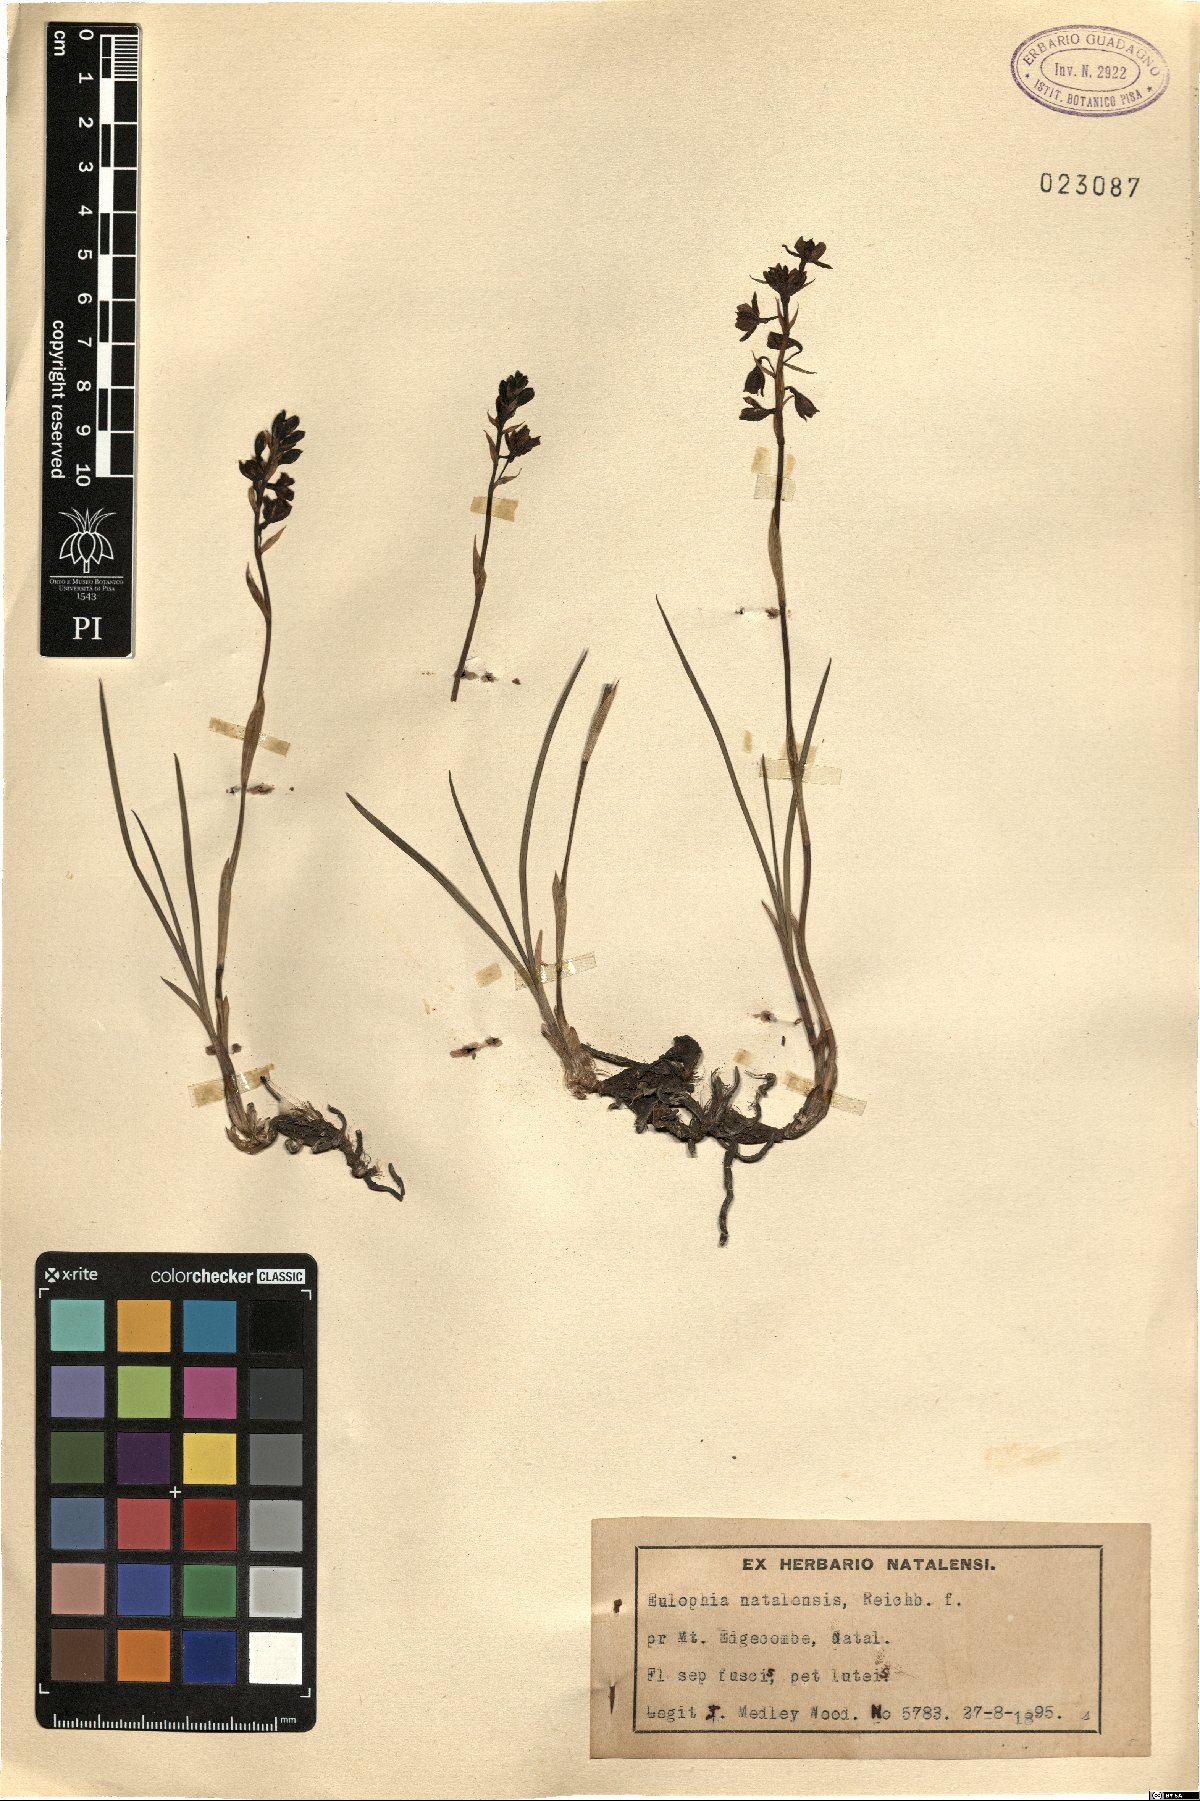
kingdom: Plantae
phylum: Tracheophyta
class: Liliopsida
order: Asparagales
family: Orchidaceae
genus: Eulophia
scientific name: Eulophia parviflora
